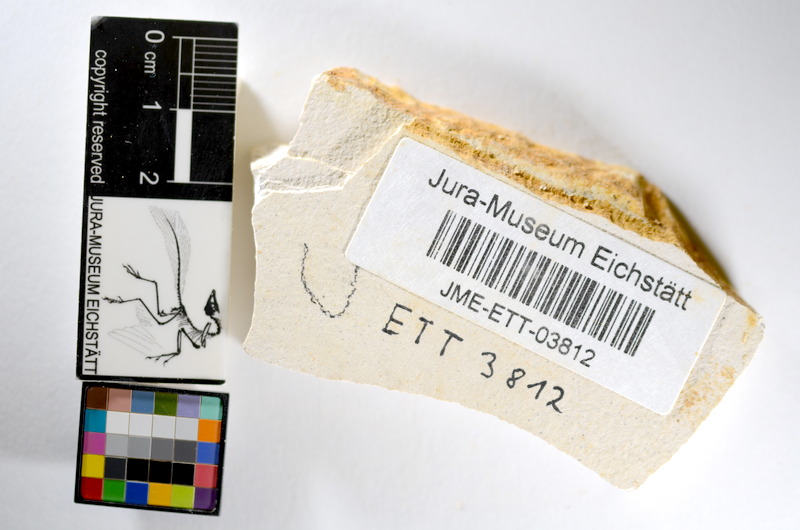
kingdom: Animalia
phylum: Chordata
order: Salmoniformes
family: Orthogonikleithridae
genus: Orthogonikleithrus
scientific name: Orthogonikleithrus hoelli
